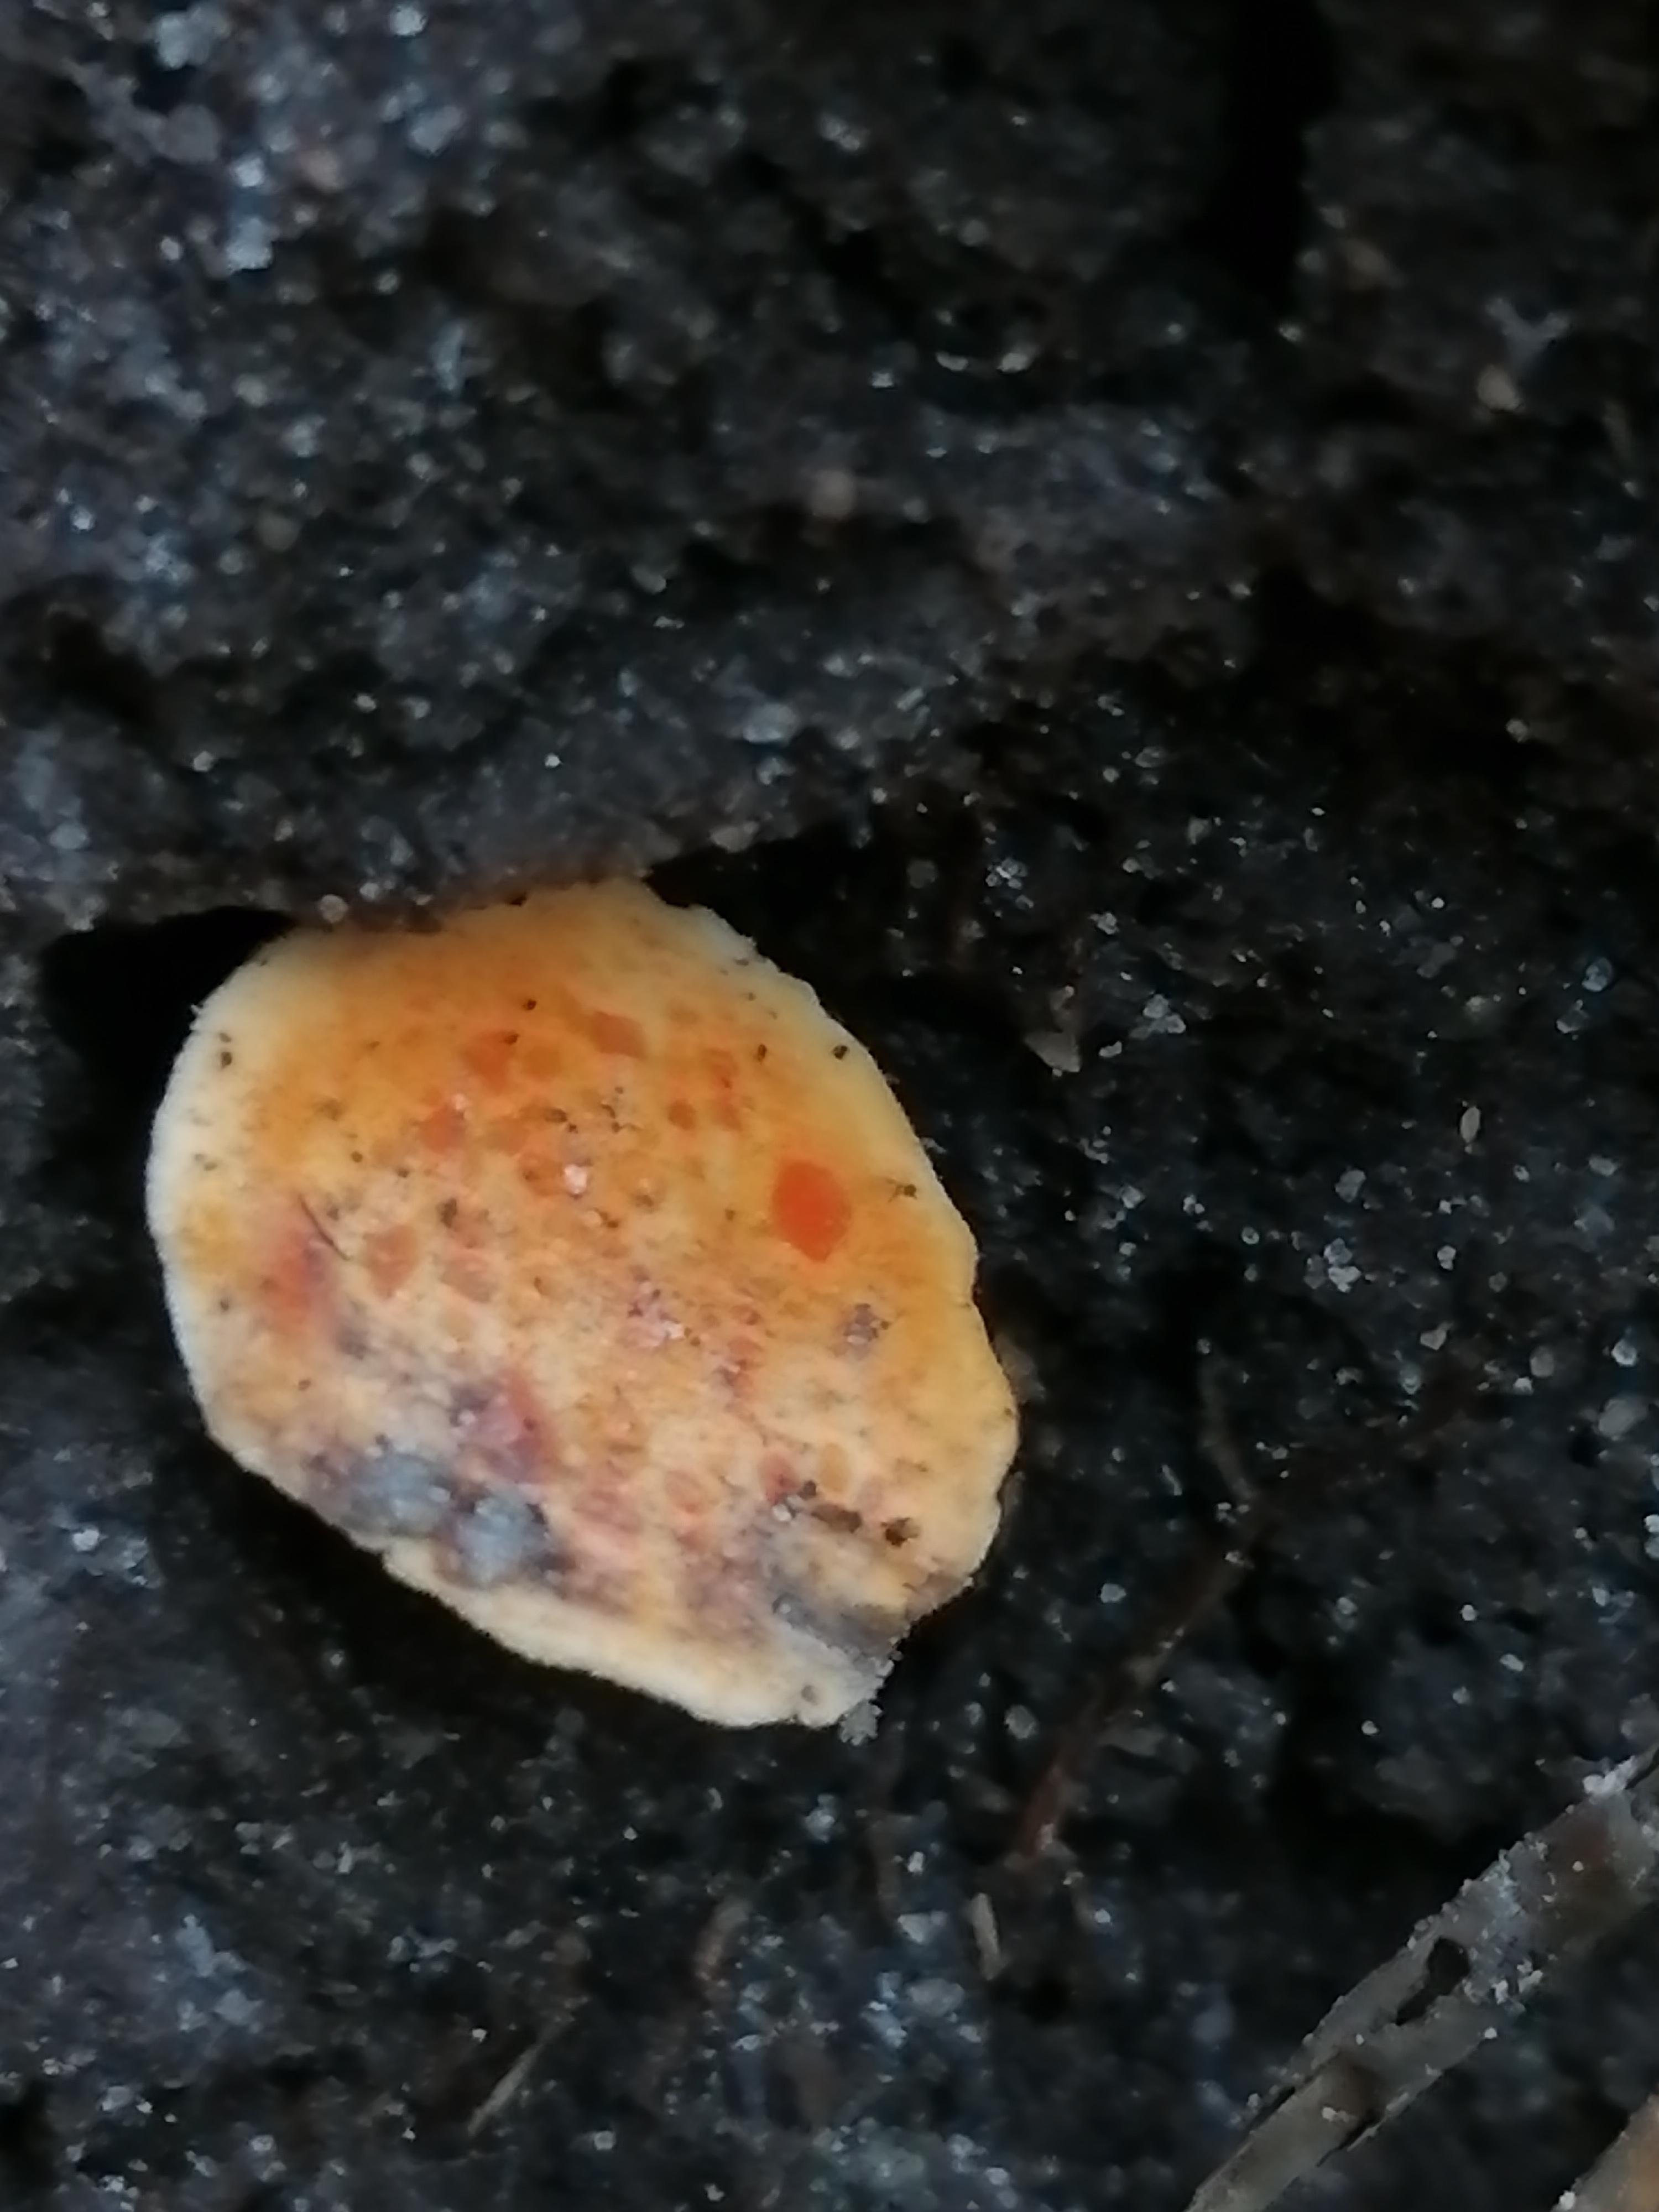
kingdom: Fungi
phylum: Basidiomycota
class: Agaricomycetes
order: Boletales
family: Hygrophoropsidaceae
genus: Hygrophoropsis
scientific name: Hygrophoropsis aurantiaca
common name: almindelig orangekantarel
